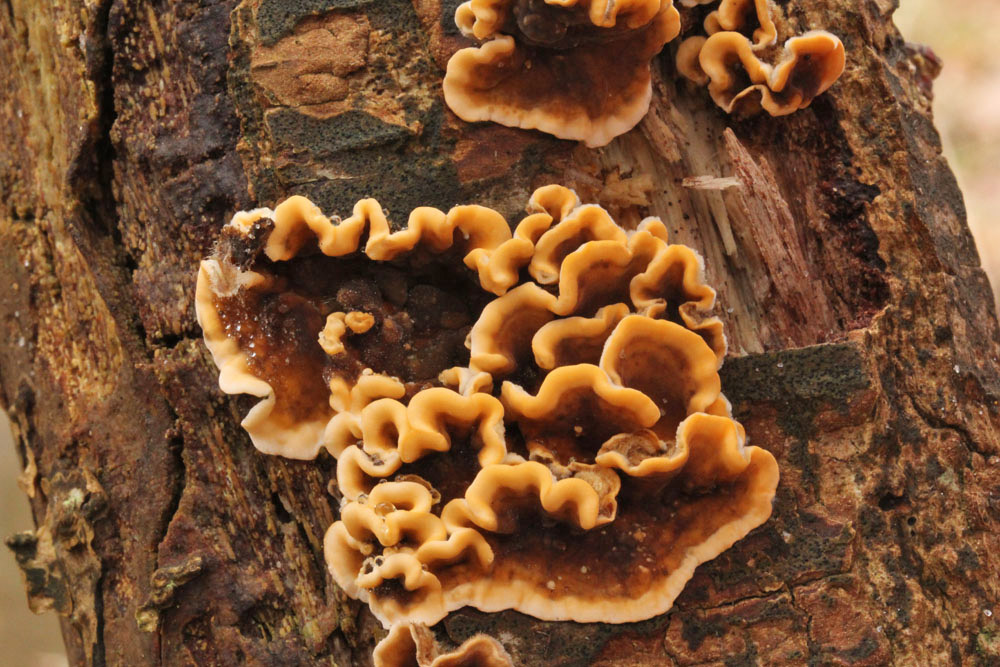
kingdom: Fungi
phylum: Basidiomycota
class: Agaricomycetes
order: Russulales
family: Stereaceae
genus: Stereum
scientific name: Stereum hirsutum
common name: håret lædersvamp
